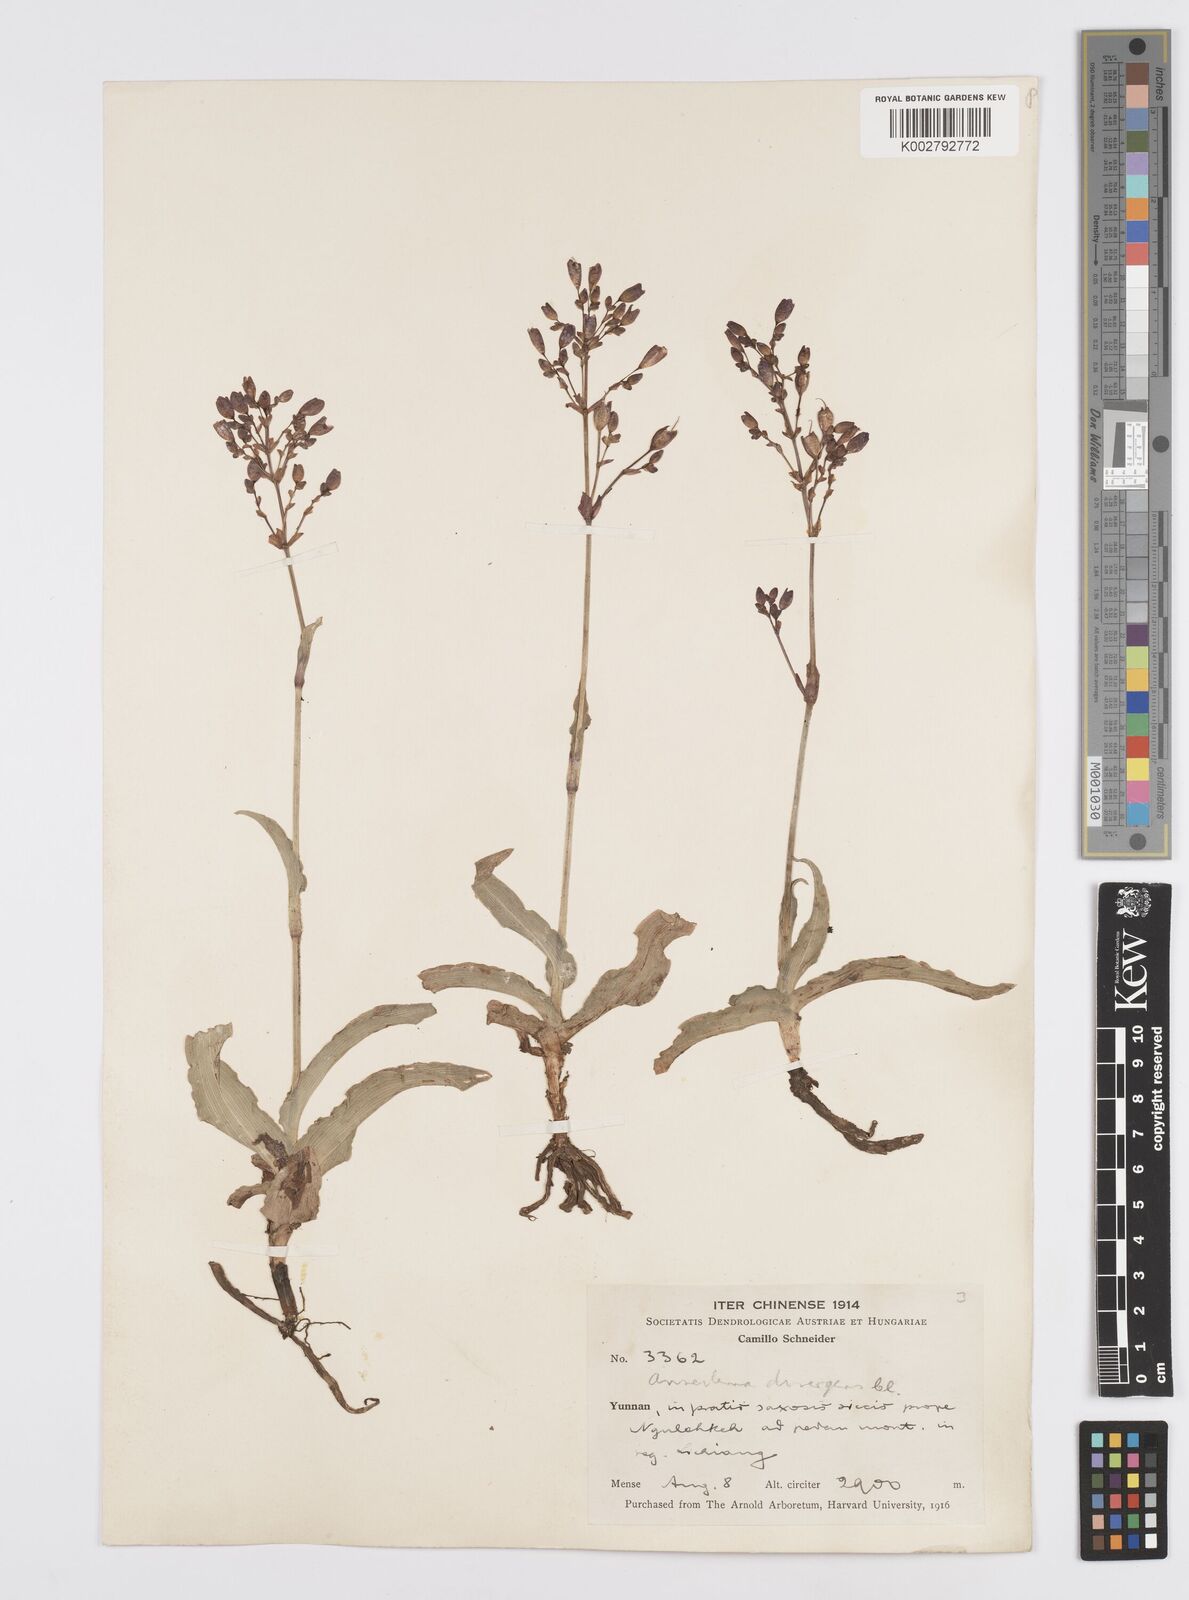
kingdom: Plantae
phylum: Tracheophyta
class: Liliopsida
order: Commelinales
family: Commelinaceae
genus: Murdannia
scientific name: Murdannia divergens
